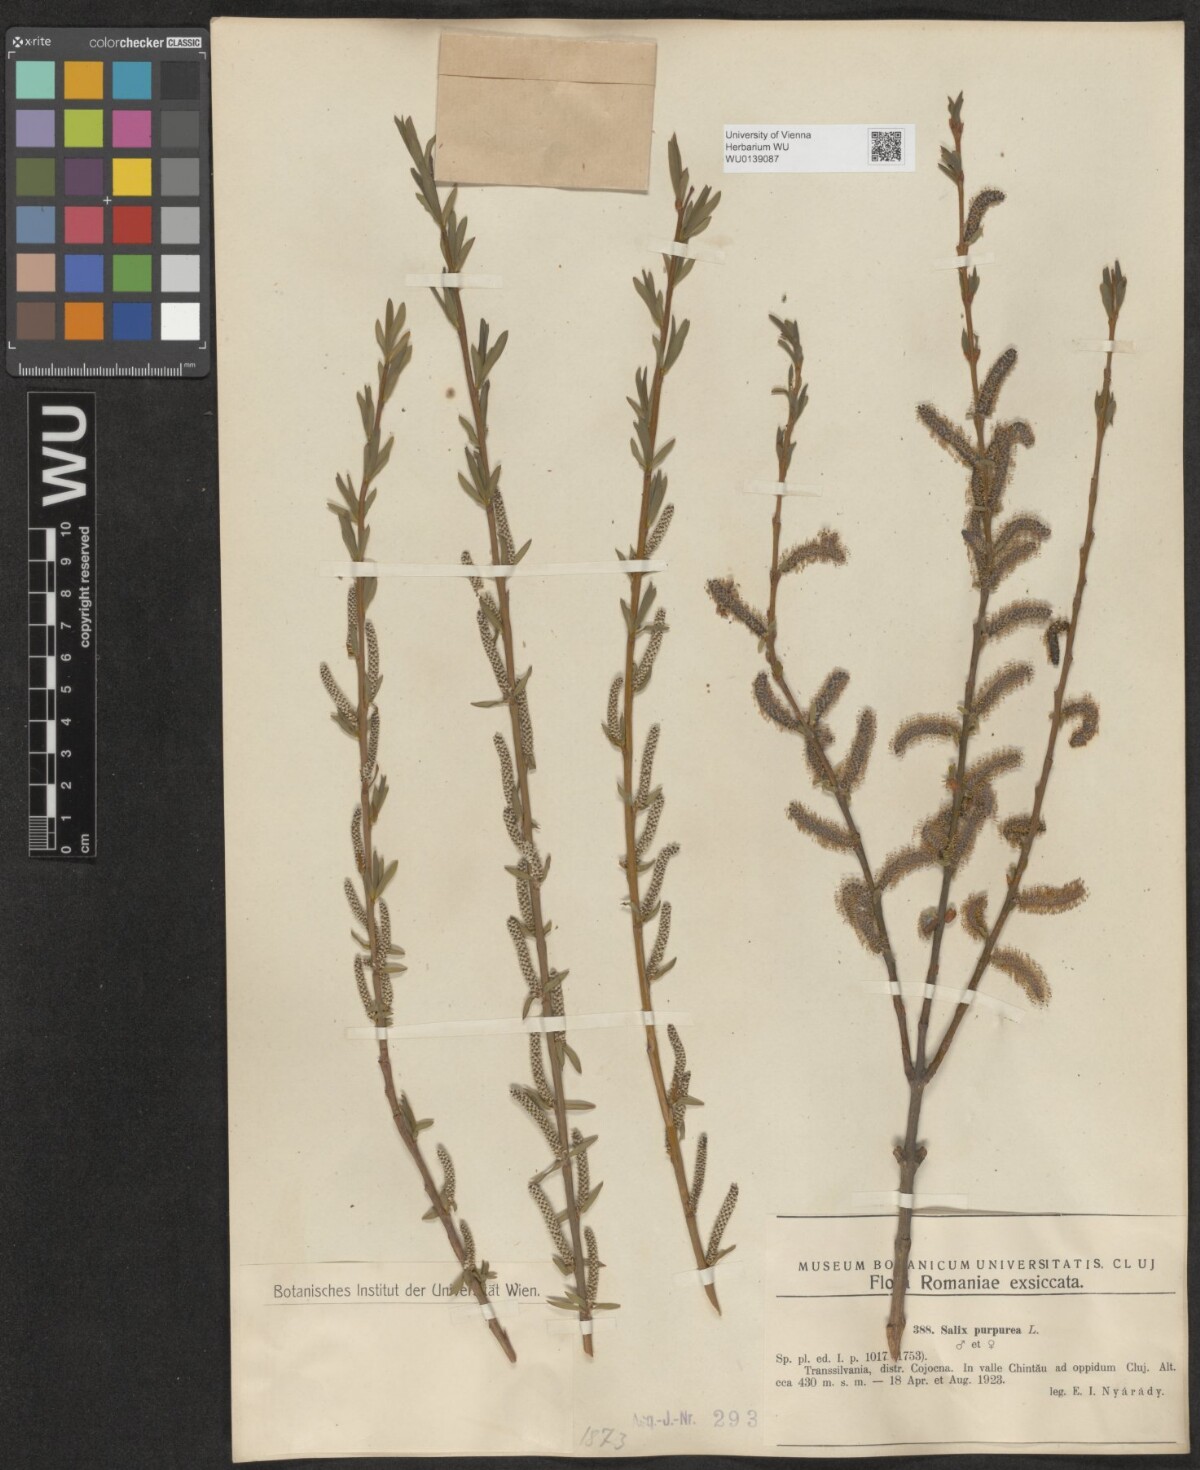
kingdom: Plantae
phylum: Tracheophyta
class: Magnoliopsida
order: Malpighiales
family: Salicaceae
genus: Salix
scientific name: Salix purpurea
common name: Purple willow
